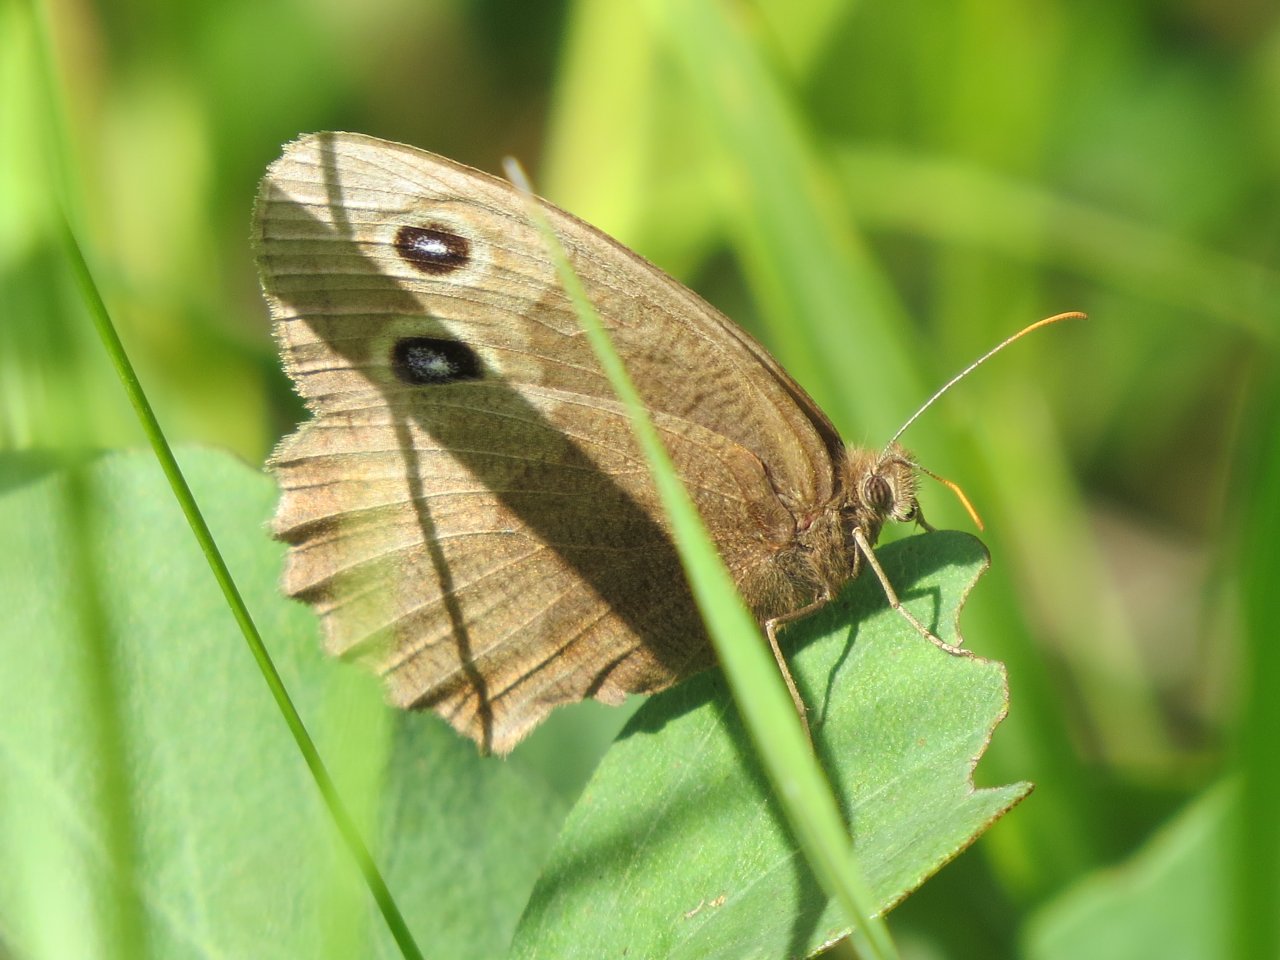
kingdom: Animalia
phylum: Arthropoda
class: Insecta
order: Lepidoptera
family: Nymphalidae
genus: Cercyonis
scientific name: Cercyonis pegala
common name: Common Wood-Nymph
